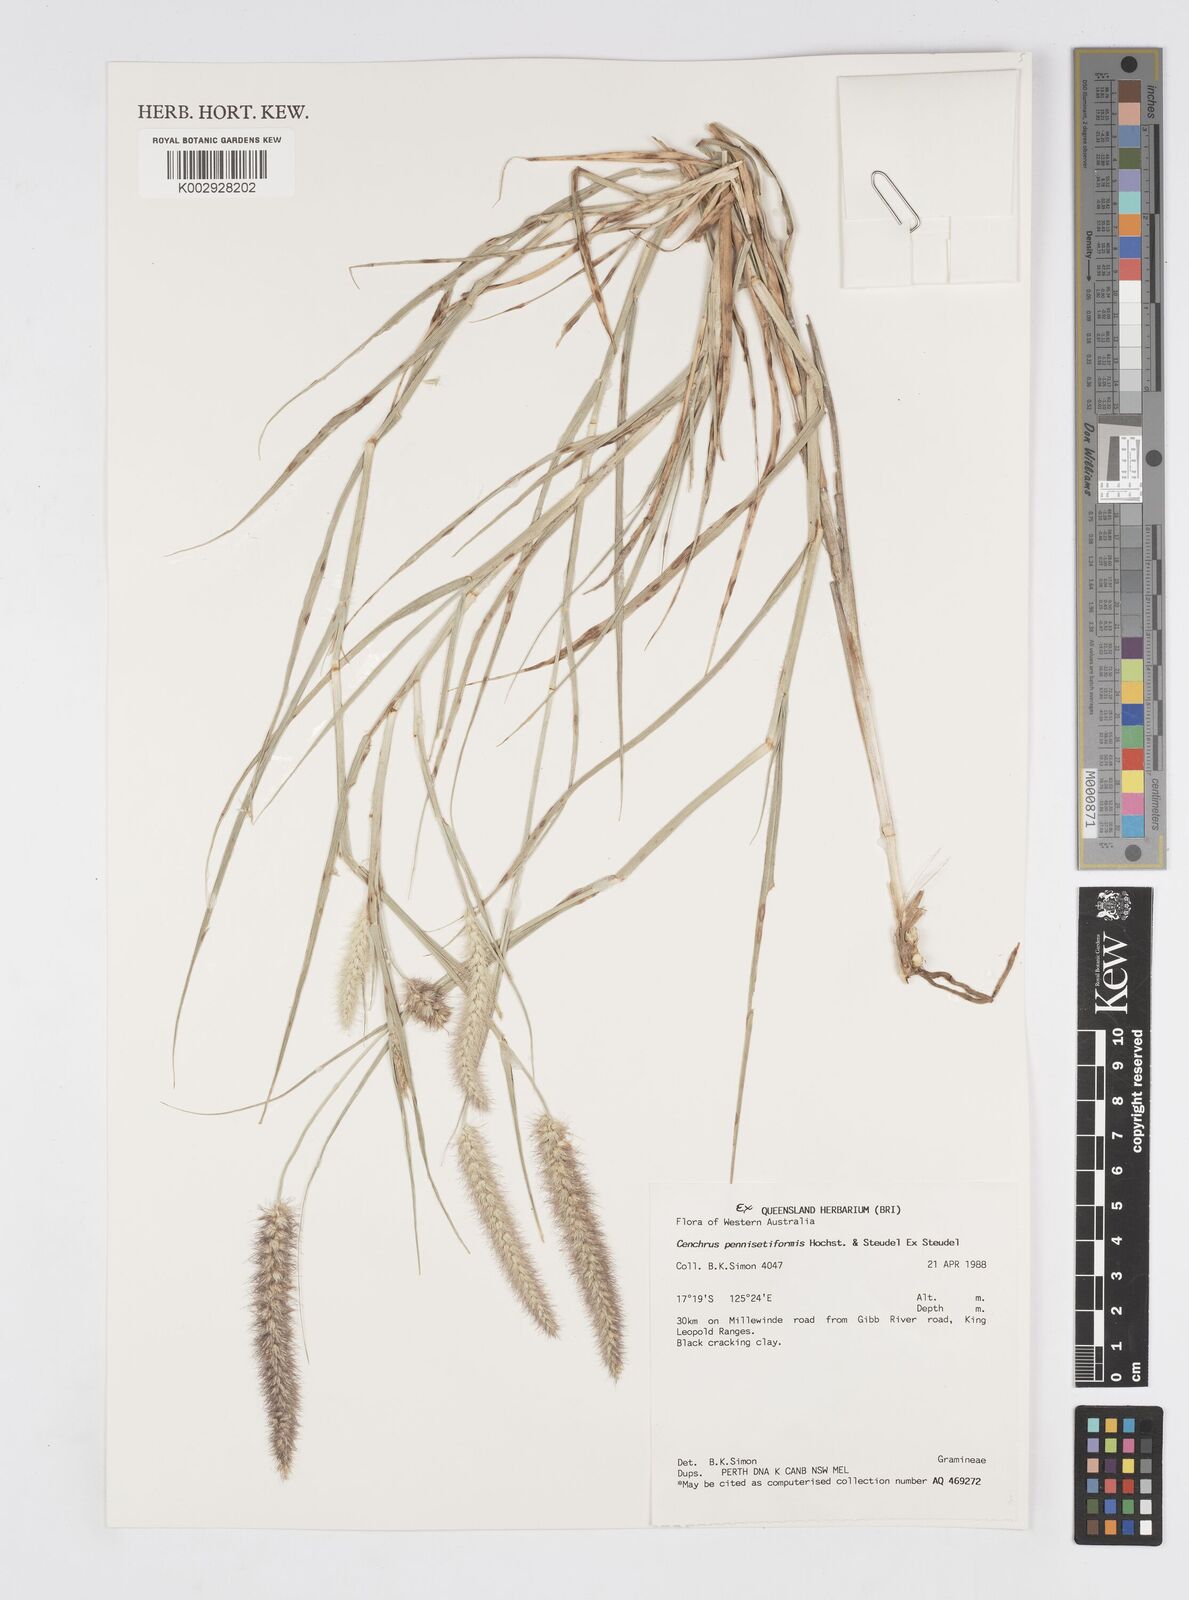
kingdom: Plantae
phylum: Tracheophyta
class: Liliopsida
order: Poales
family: Poaceae
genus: Cenchrus
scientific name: Cenchrus pennisetiformis
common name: Cloncurry
